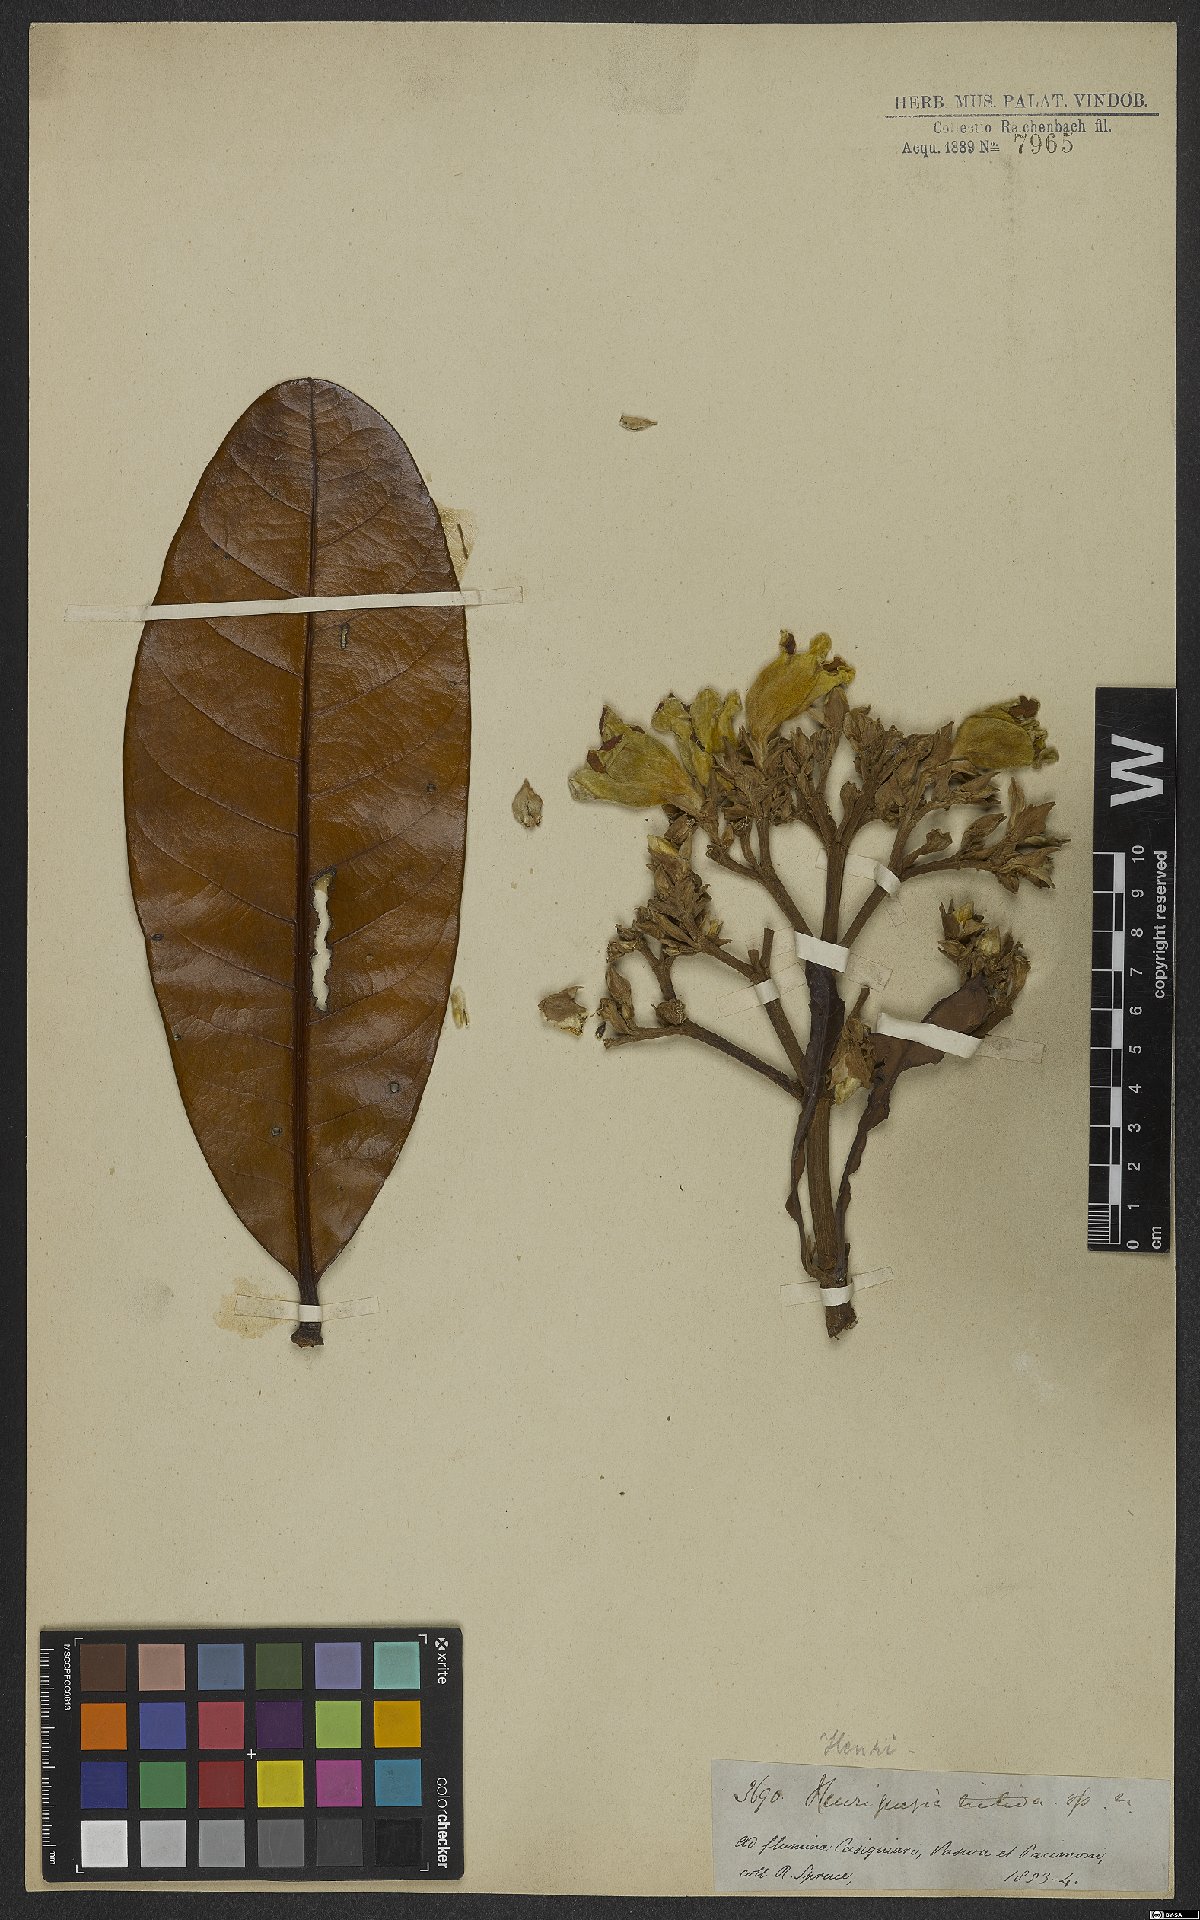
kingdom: Plantae
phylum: Tracheophyta
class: Magnoliopsida
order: Gentianales
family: Rubiaceae
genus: Henriquezia
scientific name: Henriquezia nitida
